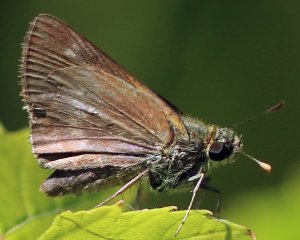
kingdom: Animalia
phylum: Arthropoda
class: Insecta
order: Lepidoptera
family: Hesperiidae
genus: Polites
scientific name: Polites
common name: Crossline Skipper
